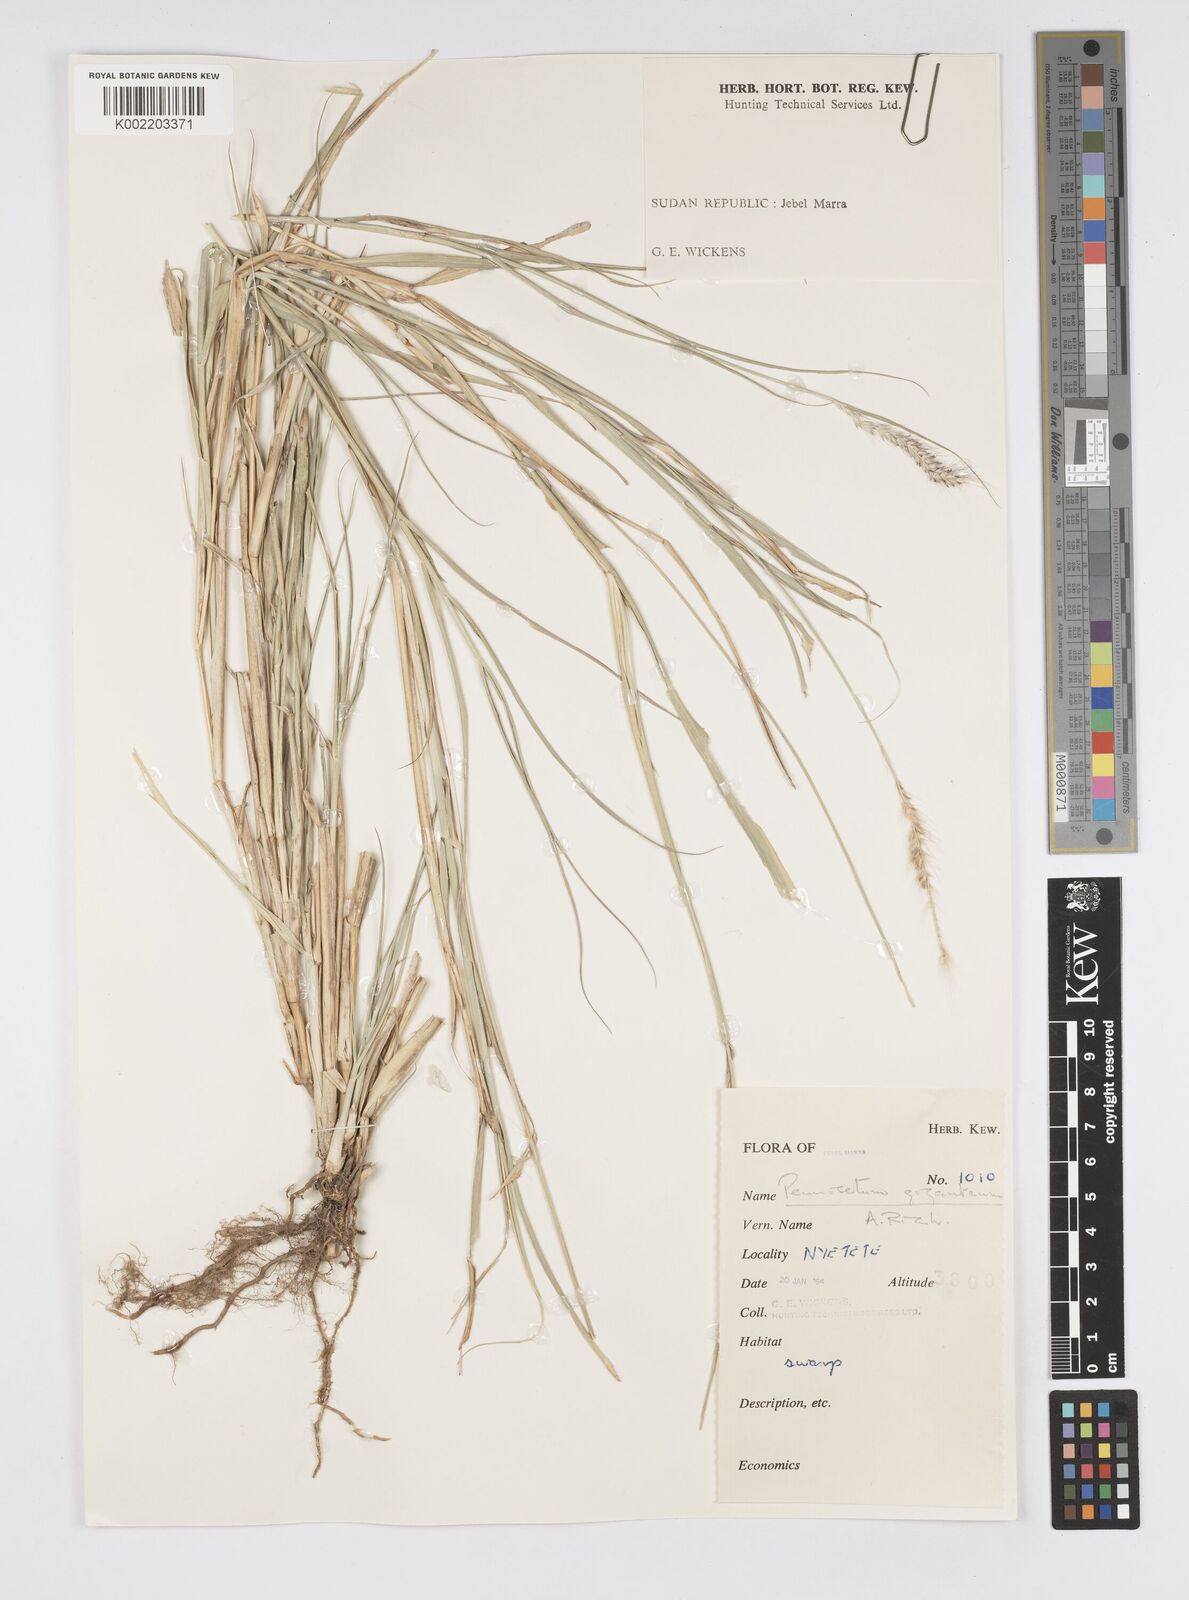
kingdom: Plantae
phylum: Tracheophyta
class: Liliopsida
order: Poales
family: Poaceae
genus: Cenchrus
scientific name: Cenchrus caudatus
